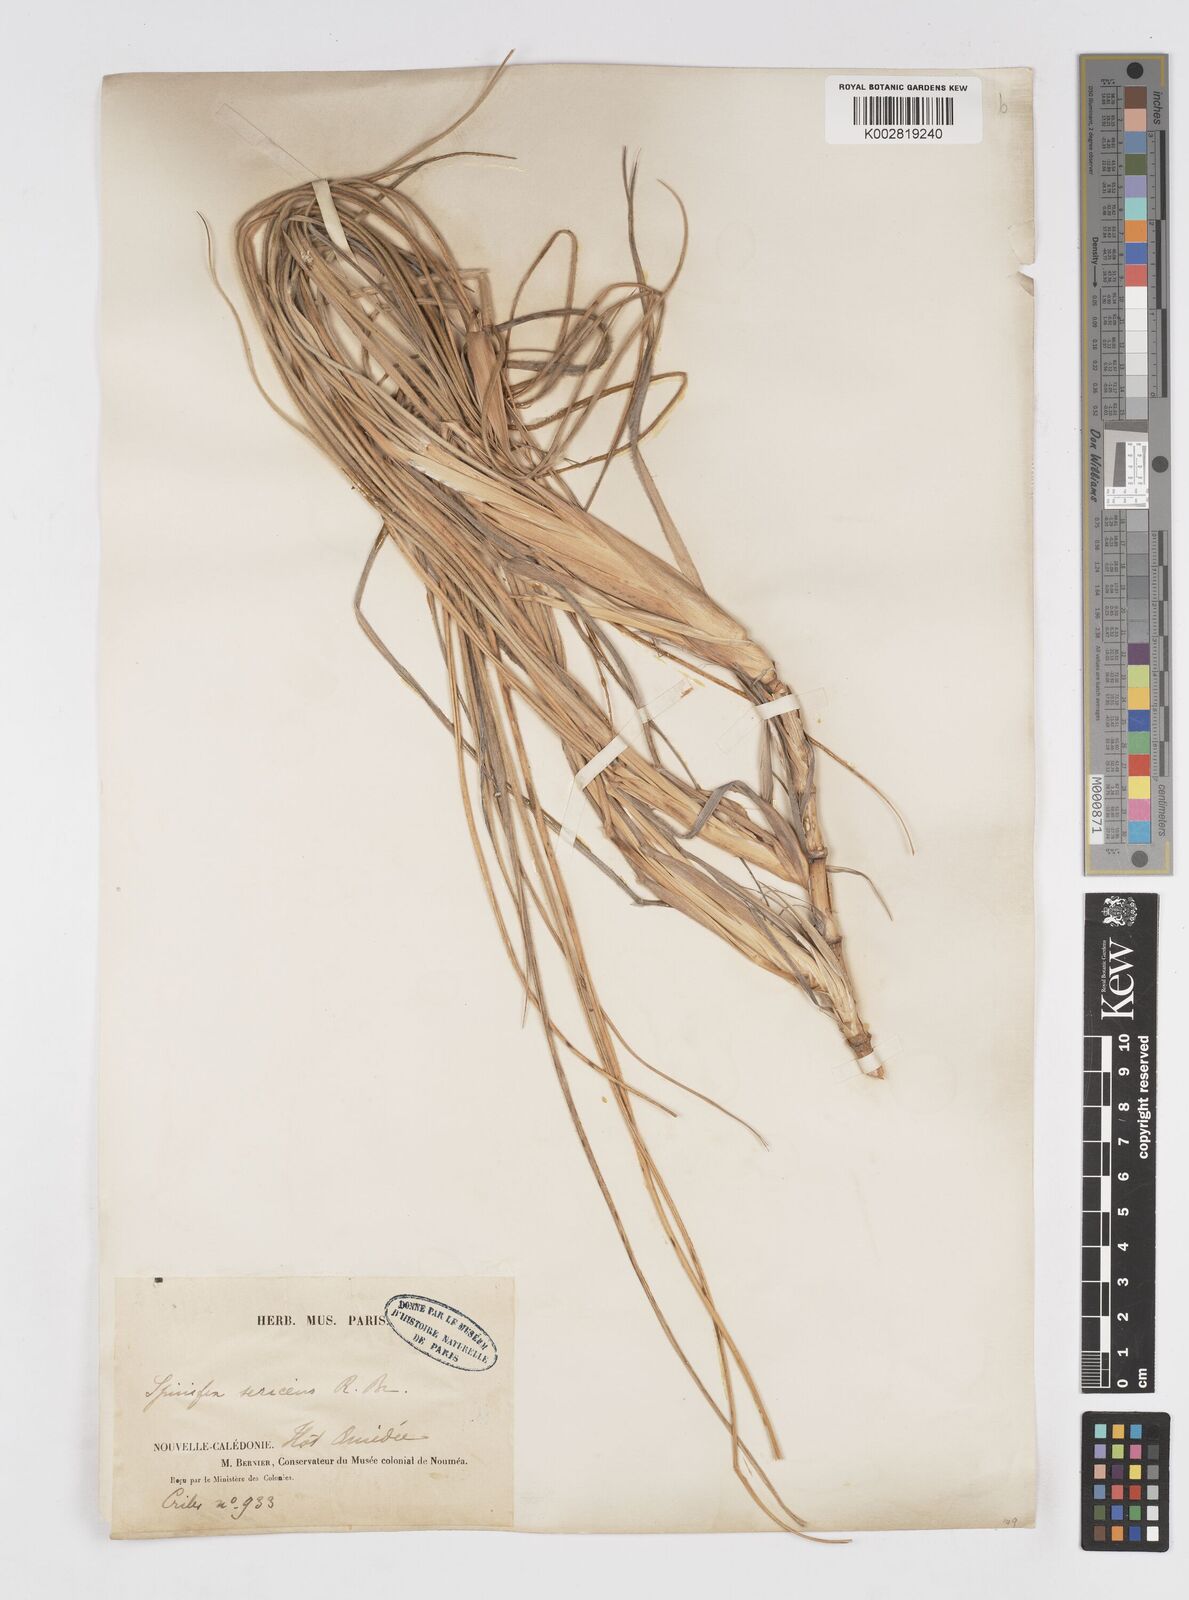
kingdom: Plantae
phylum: Tracheophyta
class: Liliopsida
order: Poales
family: Poaceae
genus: Spinifex
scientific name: Spinifex sericeus
